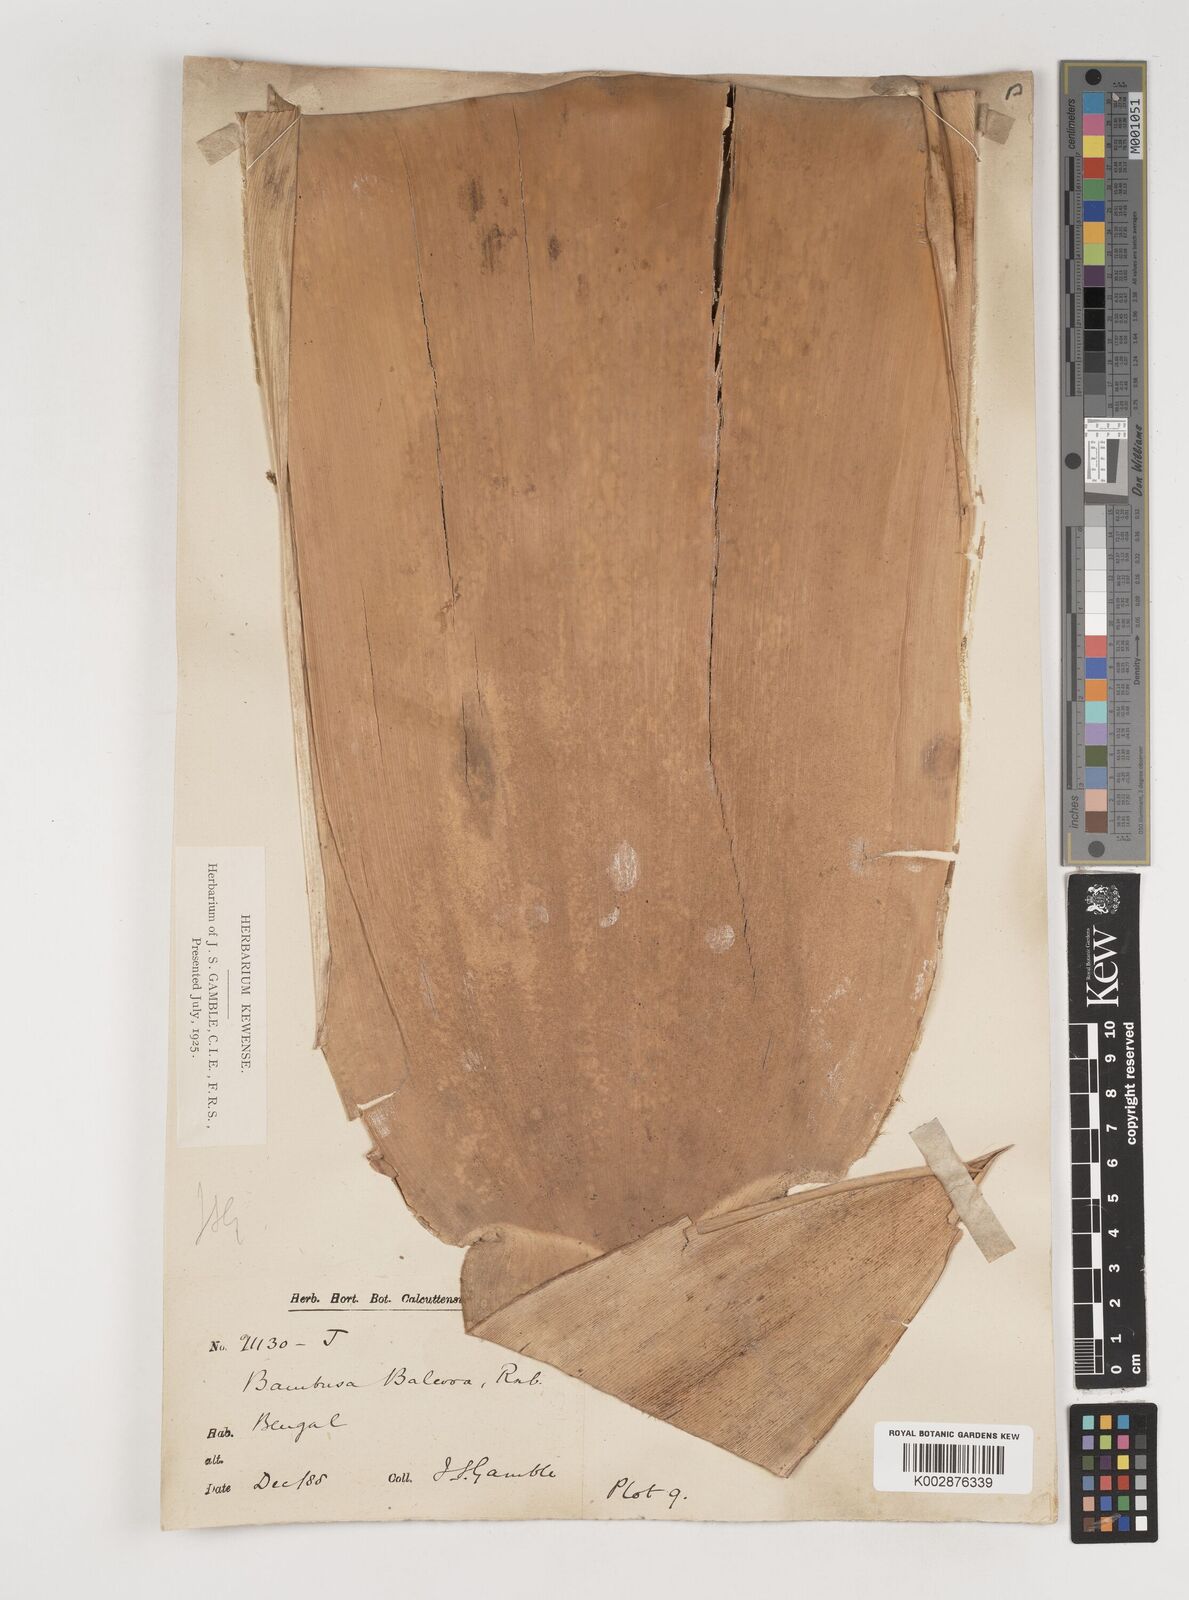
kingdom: Plantae
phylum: Tracheophyta
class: Liliopsida
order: Poales
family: Poaceae
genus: Bambusa
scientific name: Bambusa balcooa
